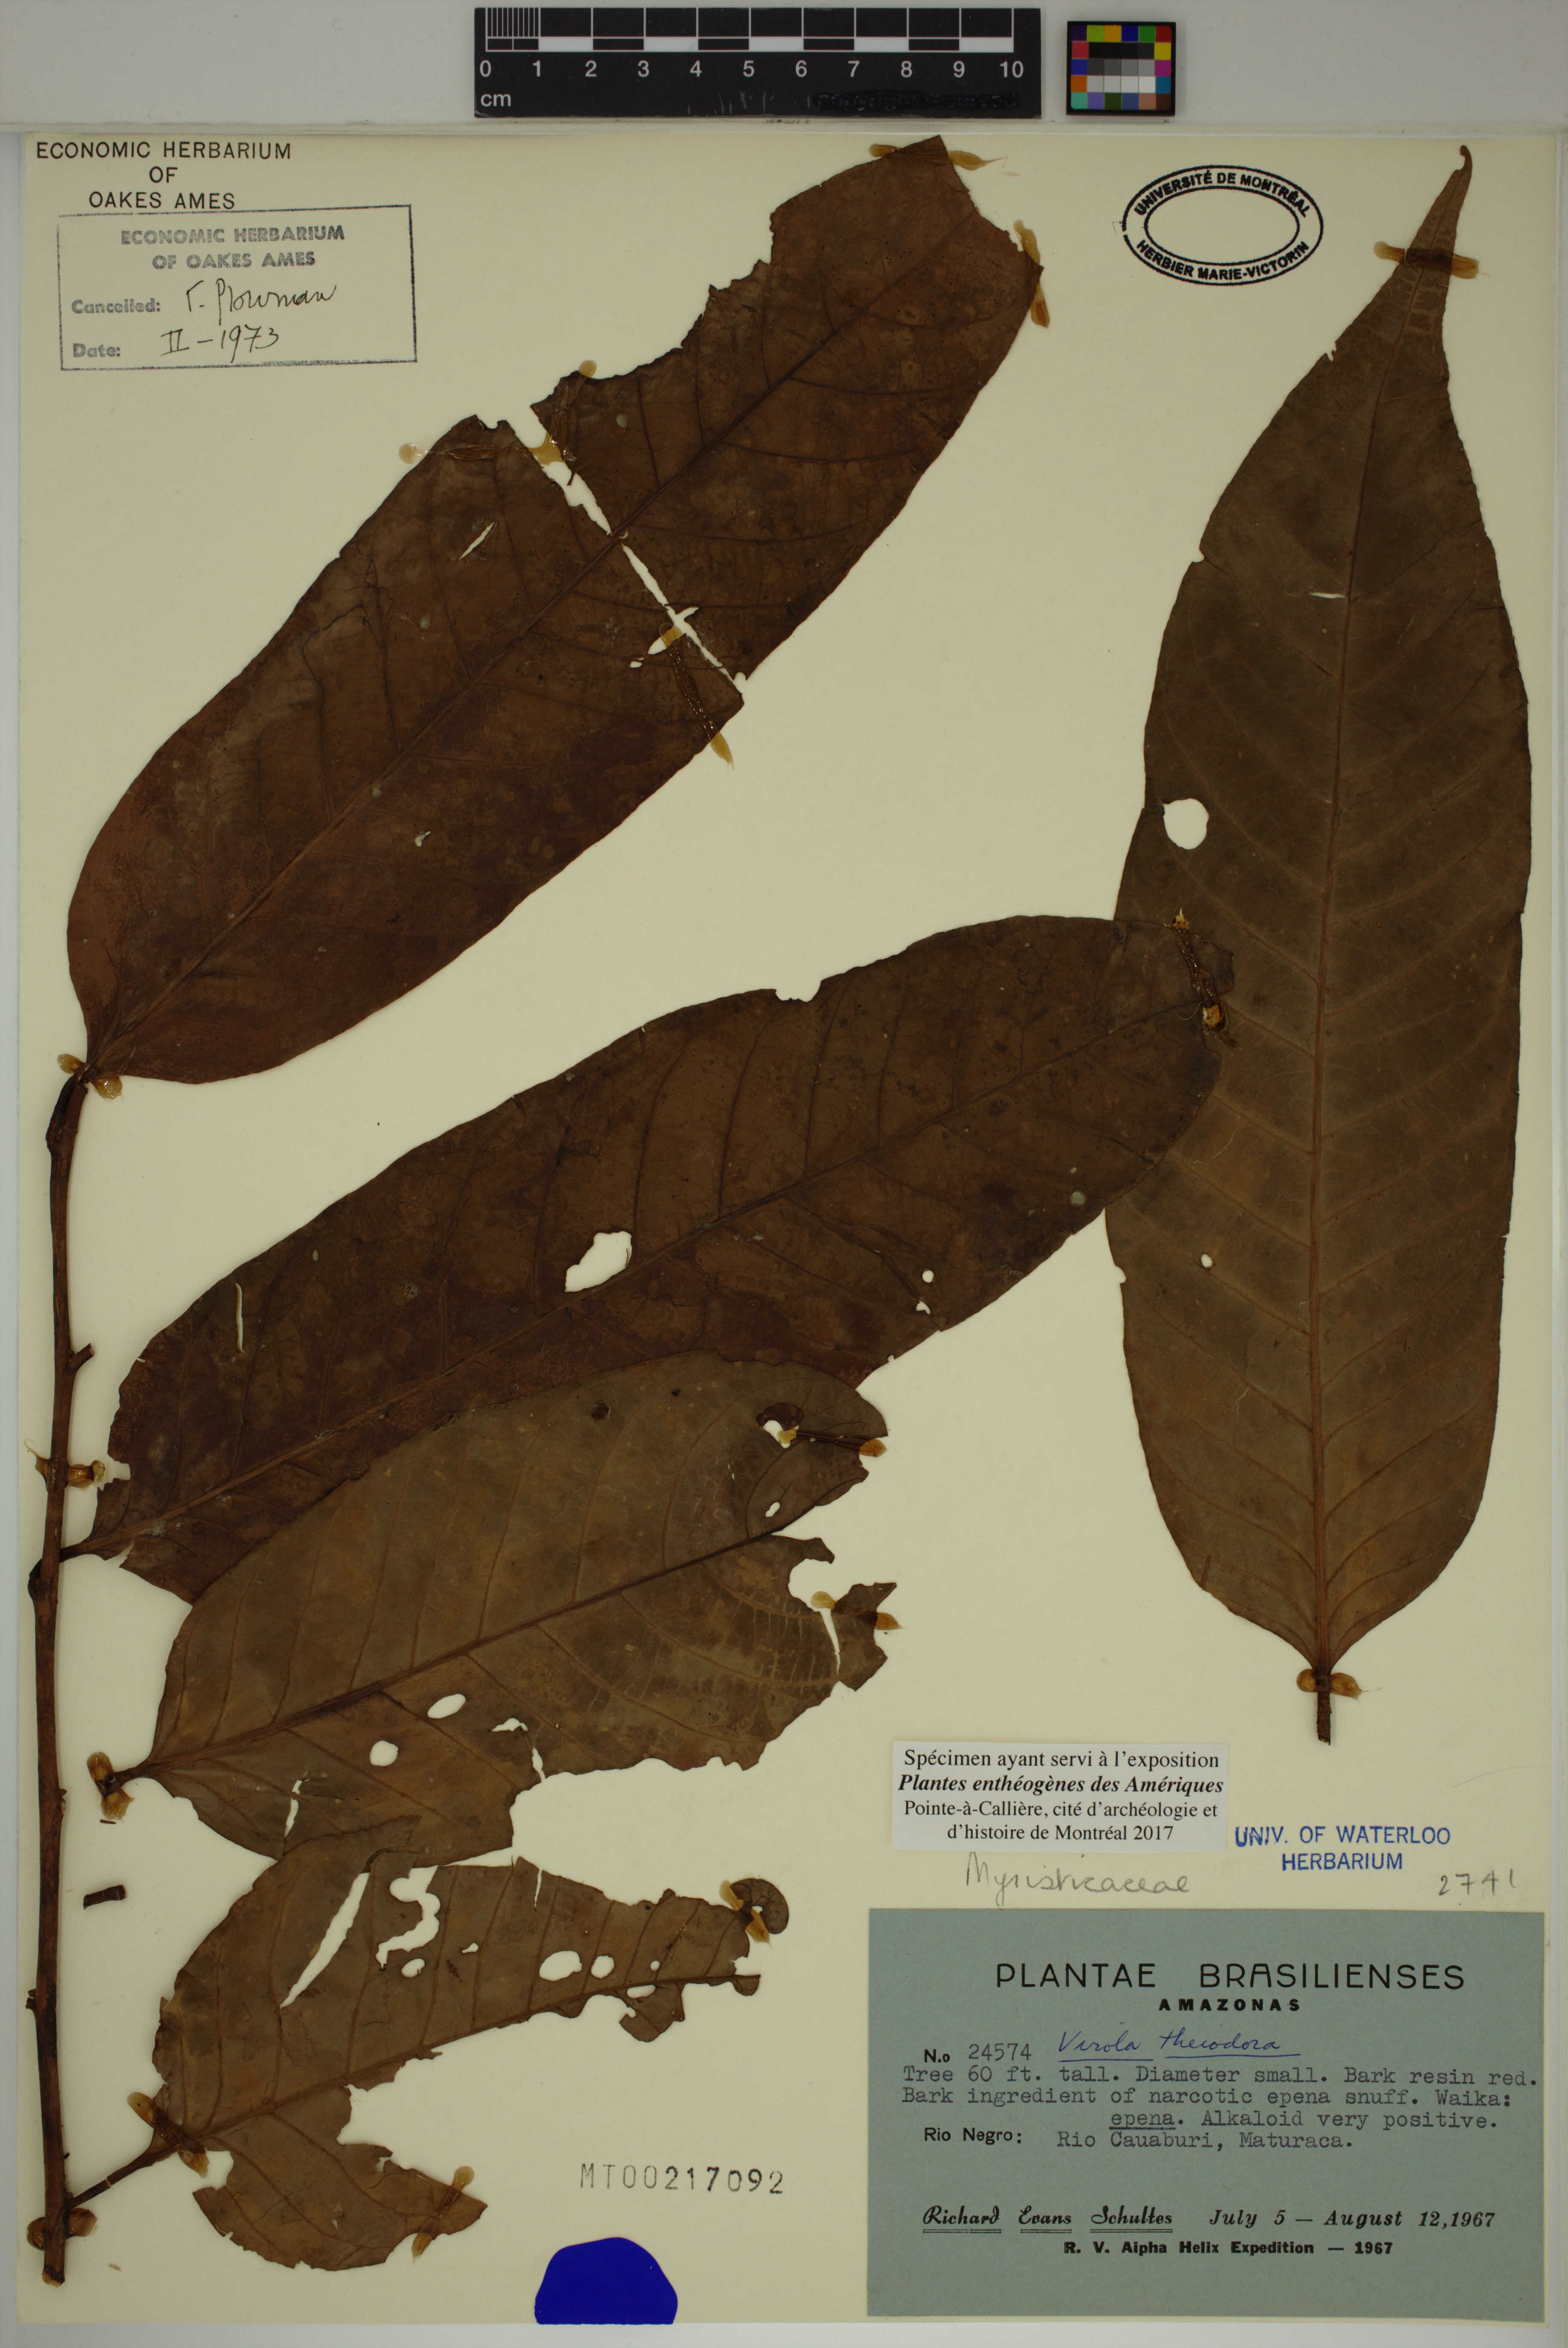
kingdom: Plantae
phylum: Tracheophyta
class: Magnoliopsida
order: Magnoliales
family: Myristicaceae
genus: Virola
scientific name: Virola theiodora
